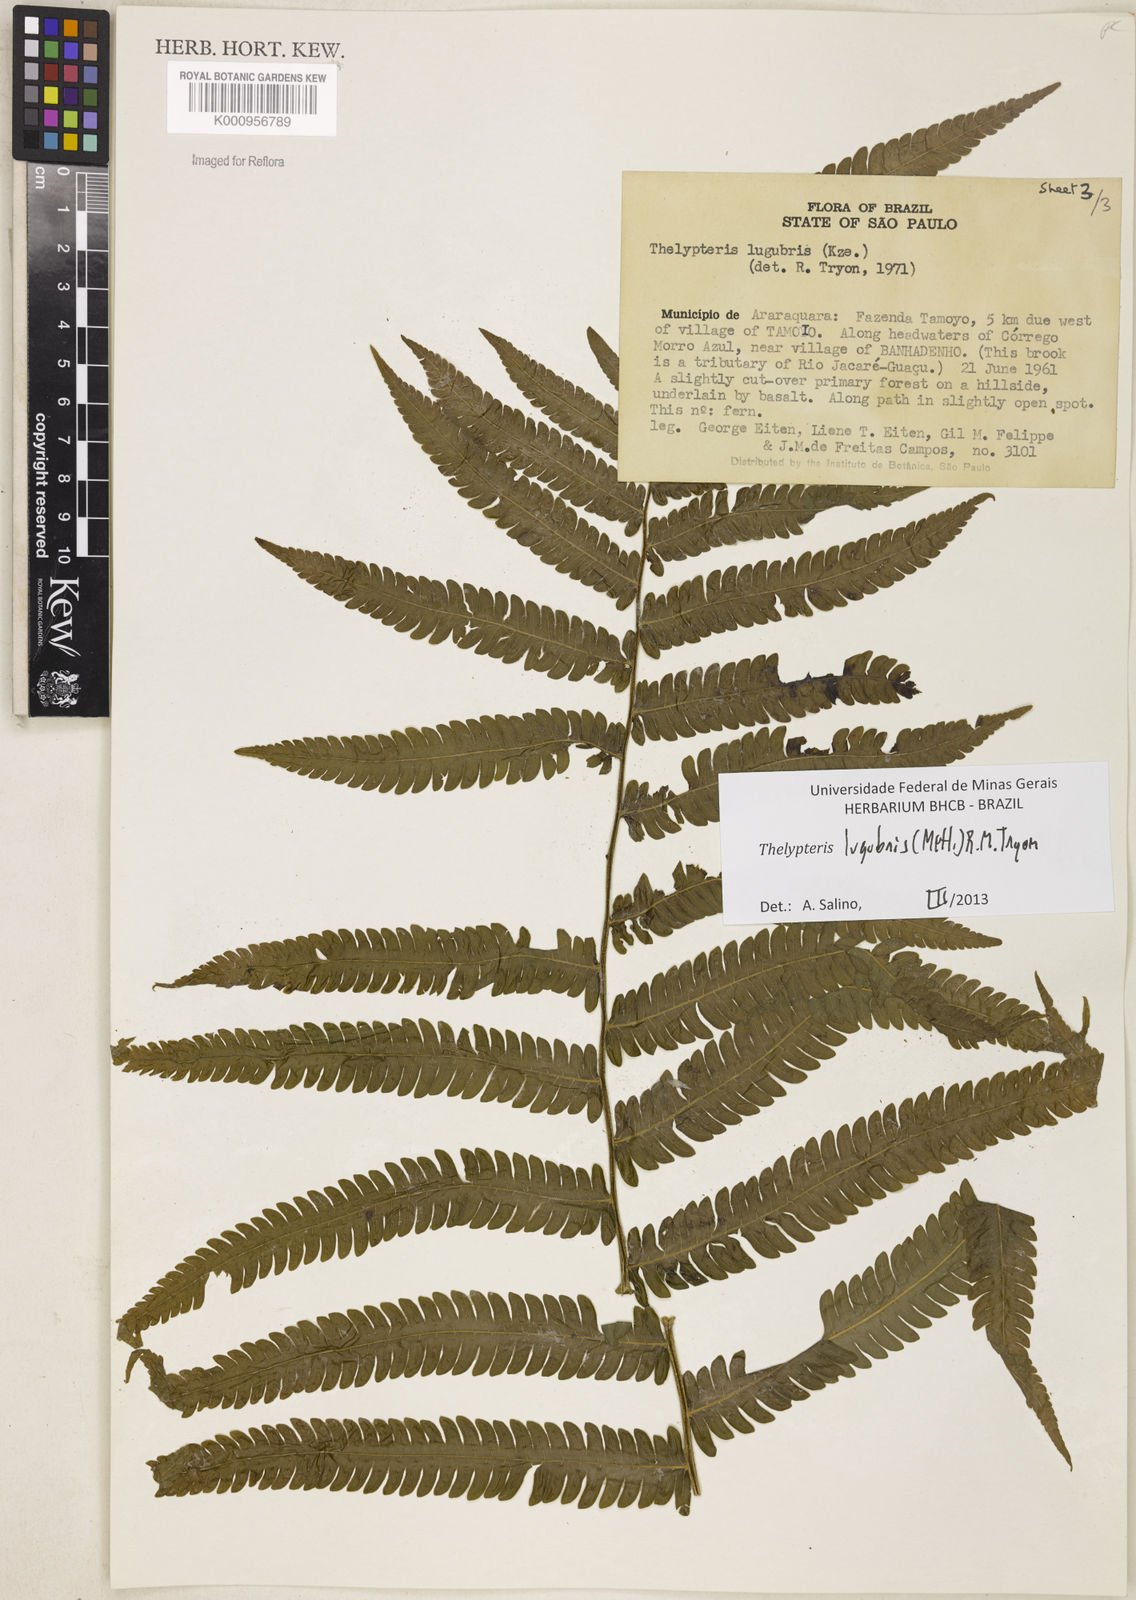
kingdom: Plantae
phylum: Tracheophyta
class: Polypodiopsida
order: Polypodiales
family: Thelypteridaceae
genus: Goniopteris
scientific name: Goniopteris lugubris
